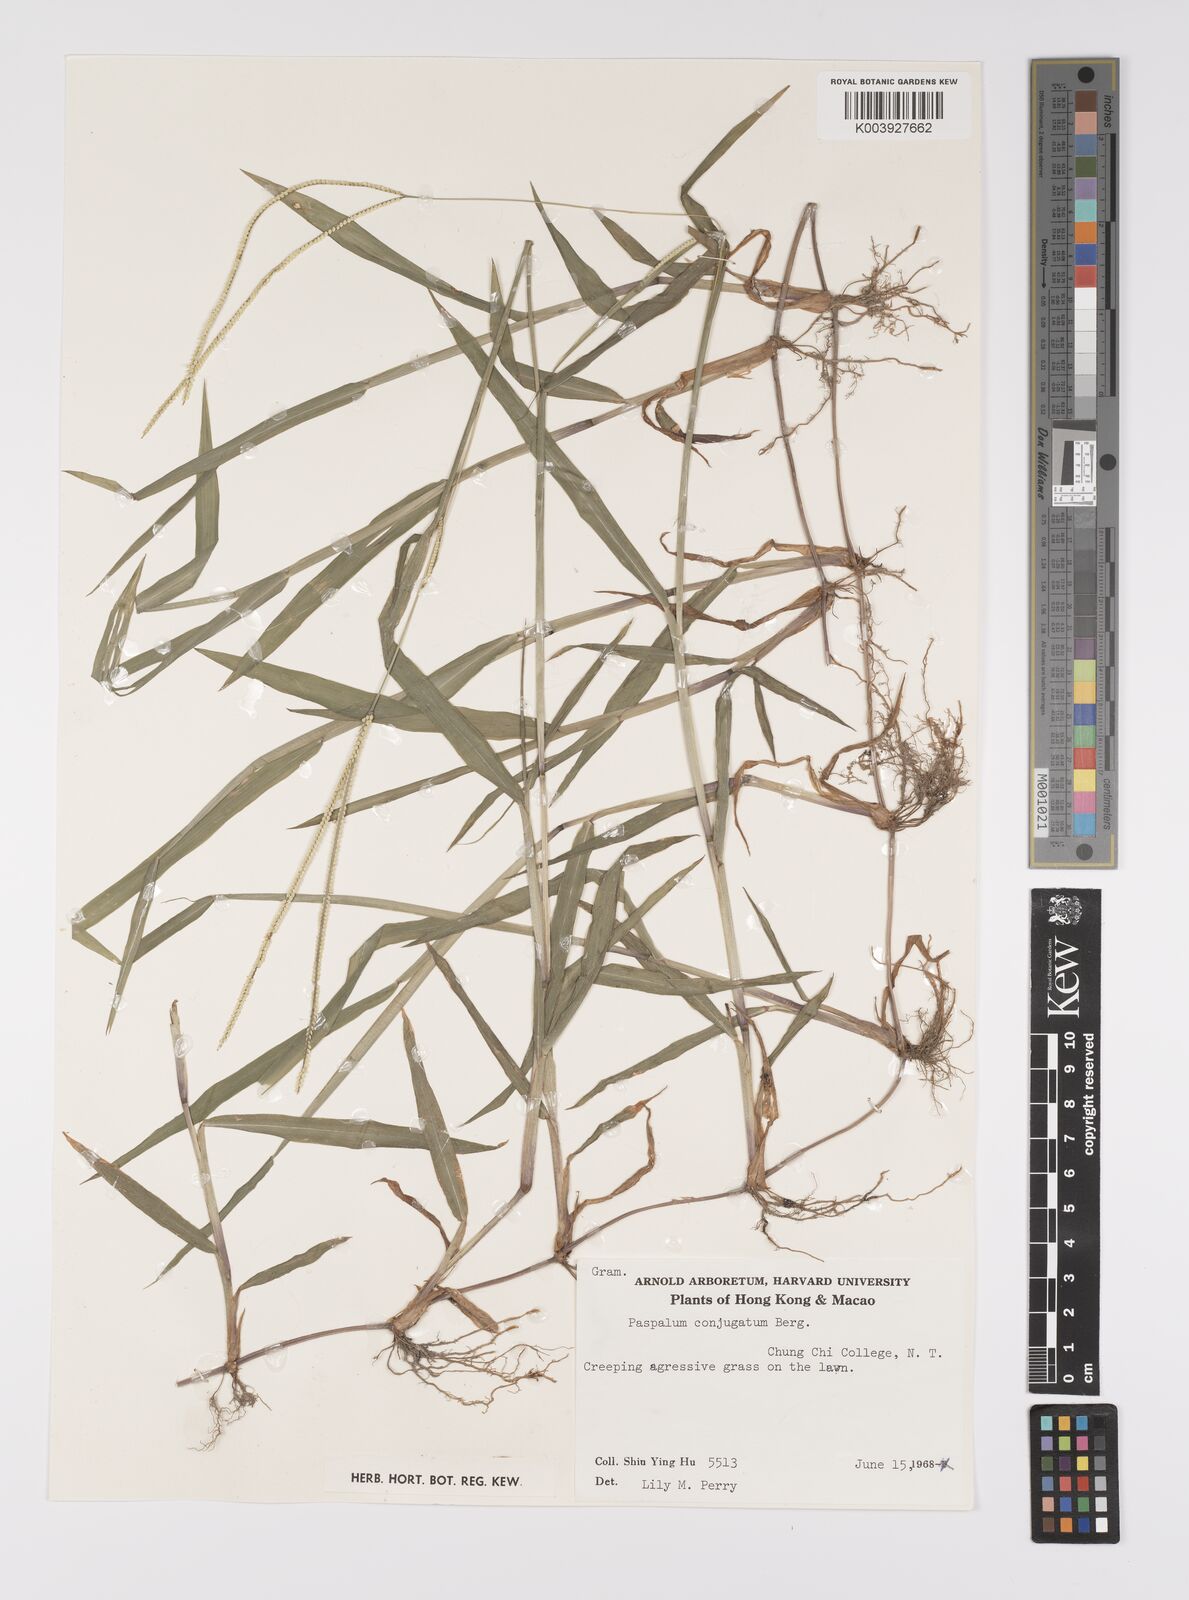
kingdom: Plantae
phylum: Tracheophyta
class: Liliopsida
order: Poales
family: Poaceae
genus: Paspalum
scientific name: Paspalum conjugatum
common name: Hilograss
